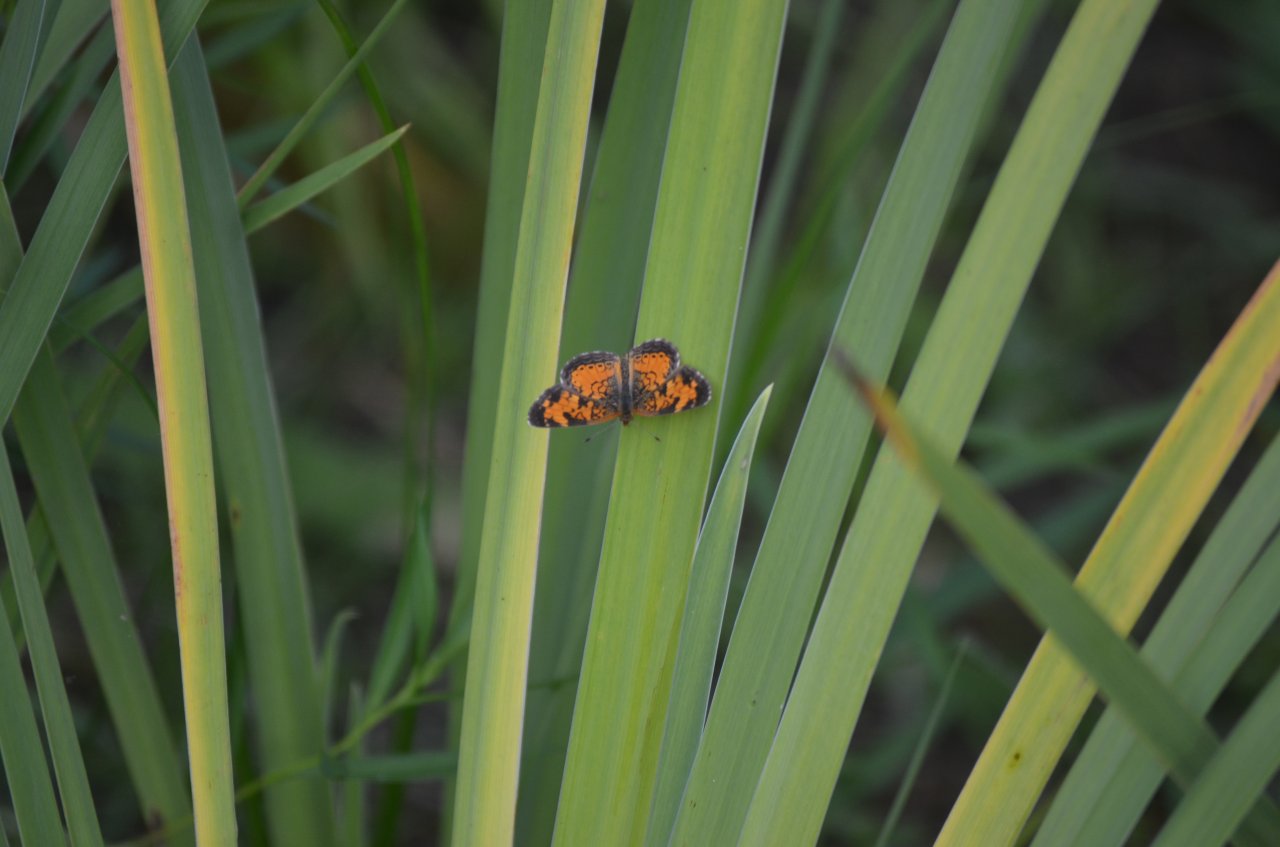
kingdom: Animalia
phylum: Arthropoda
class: Insecta
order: Lepidoptera
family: Nymphalidae
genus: Phyciodes
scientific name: Phyciodes tharos
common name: Northern Crescent
